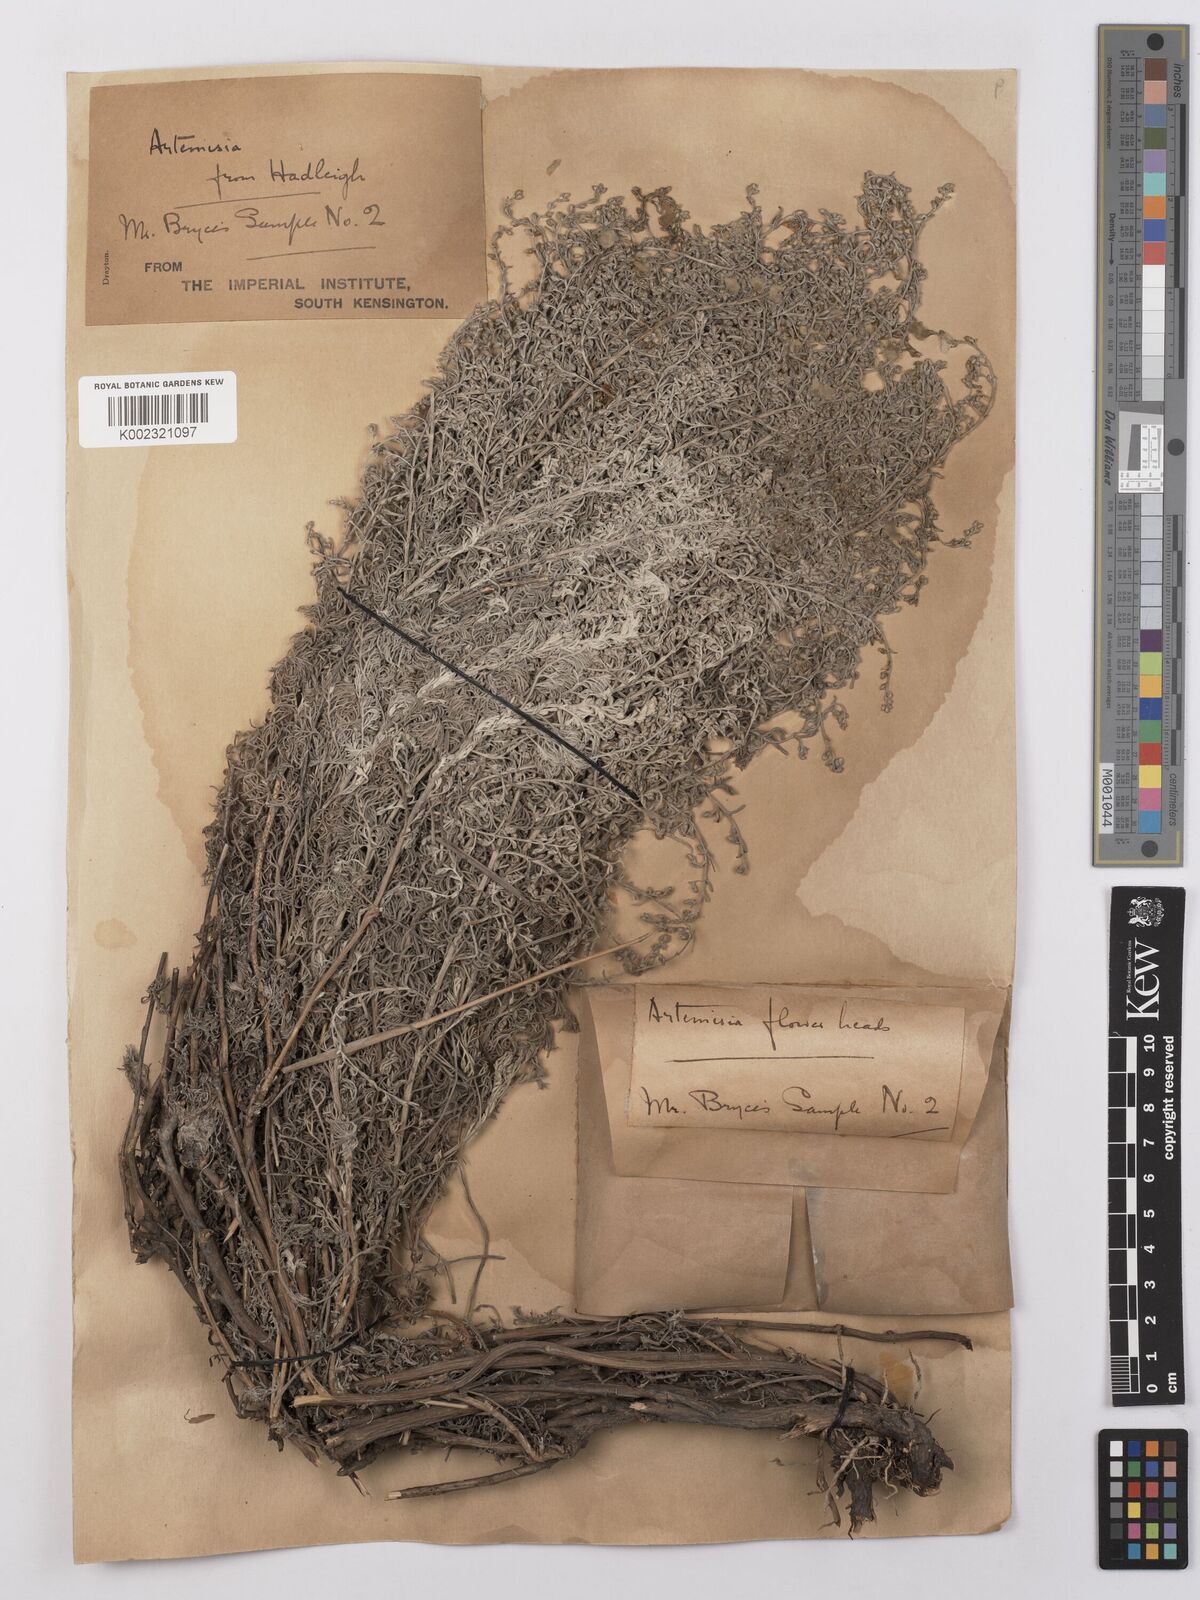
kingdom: Plantae
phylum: Tracheophyta
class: Magnoliopsida
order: Asterales
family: Asteraceae
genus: Artemisia
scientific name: Artemisia maritima
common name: Wormseed
